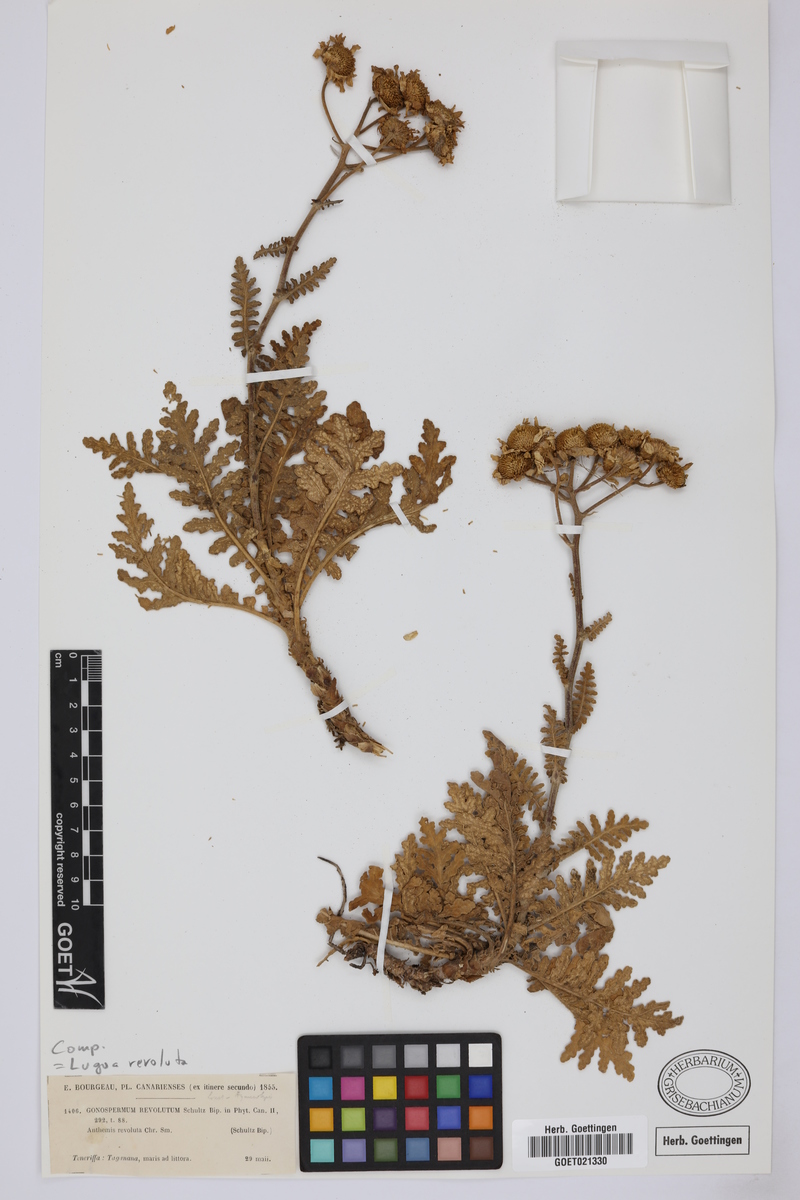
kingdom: Plantae
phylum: Tracheophyta
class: Magnoliopsida
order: Asterales
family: Asteraceae
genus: Gonospermum
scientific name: Gonospermum revolutum
